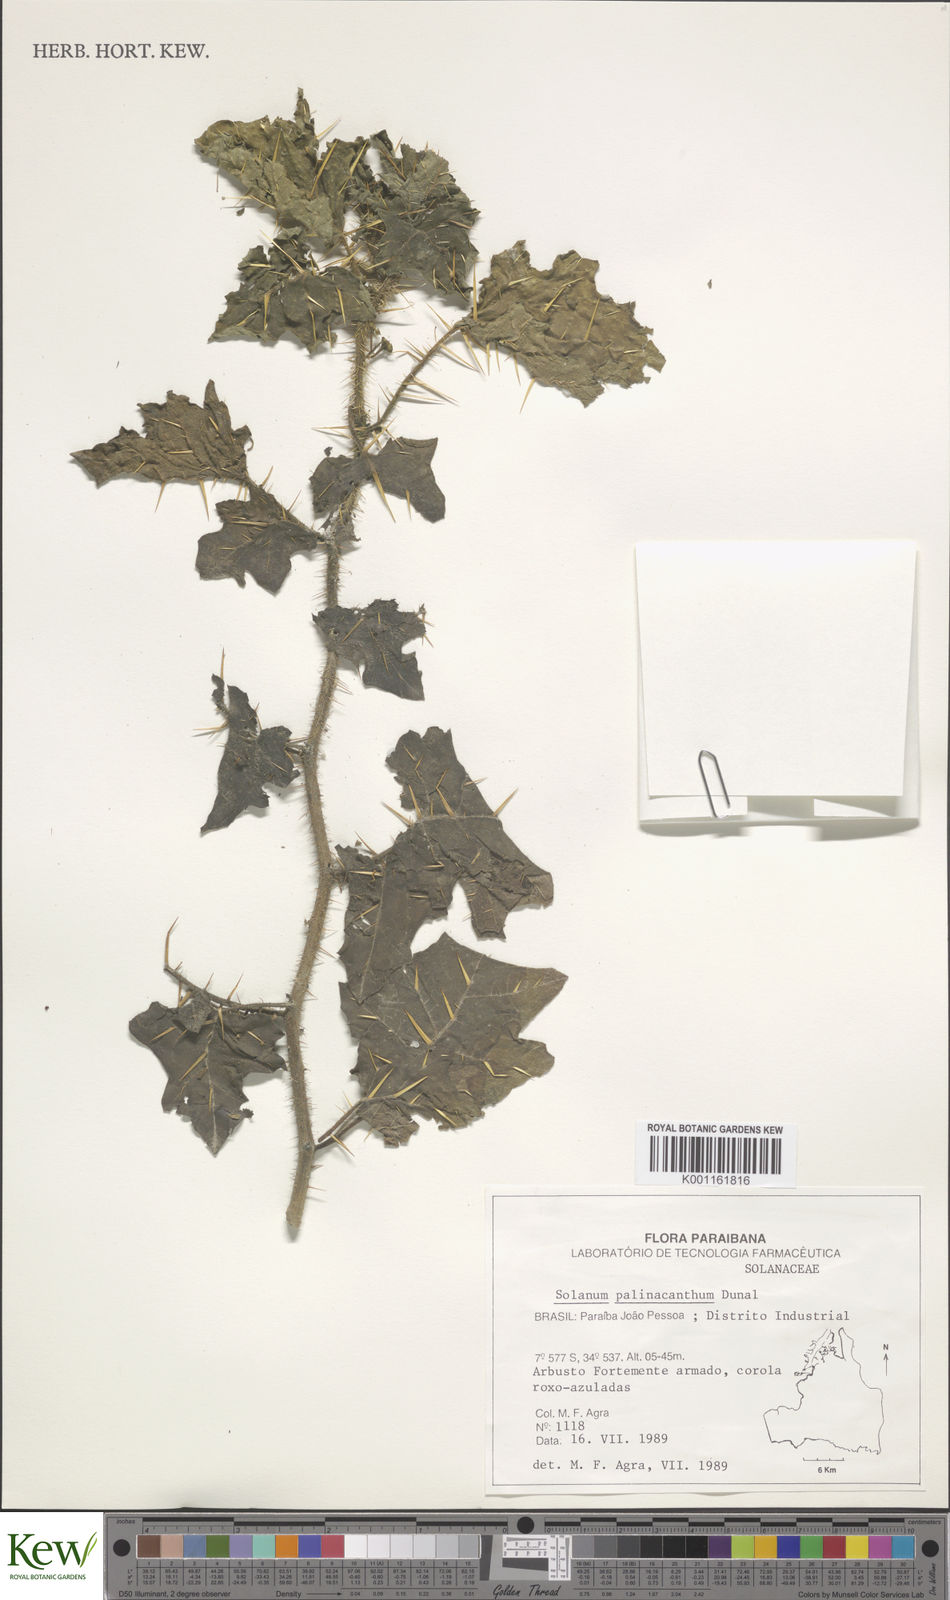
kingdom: Plantae
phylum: Tracheophyta
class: Magnoliopsida
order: Solanales
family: Solanaceae
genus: Solanum
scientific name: Solanum palinacanthum
